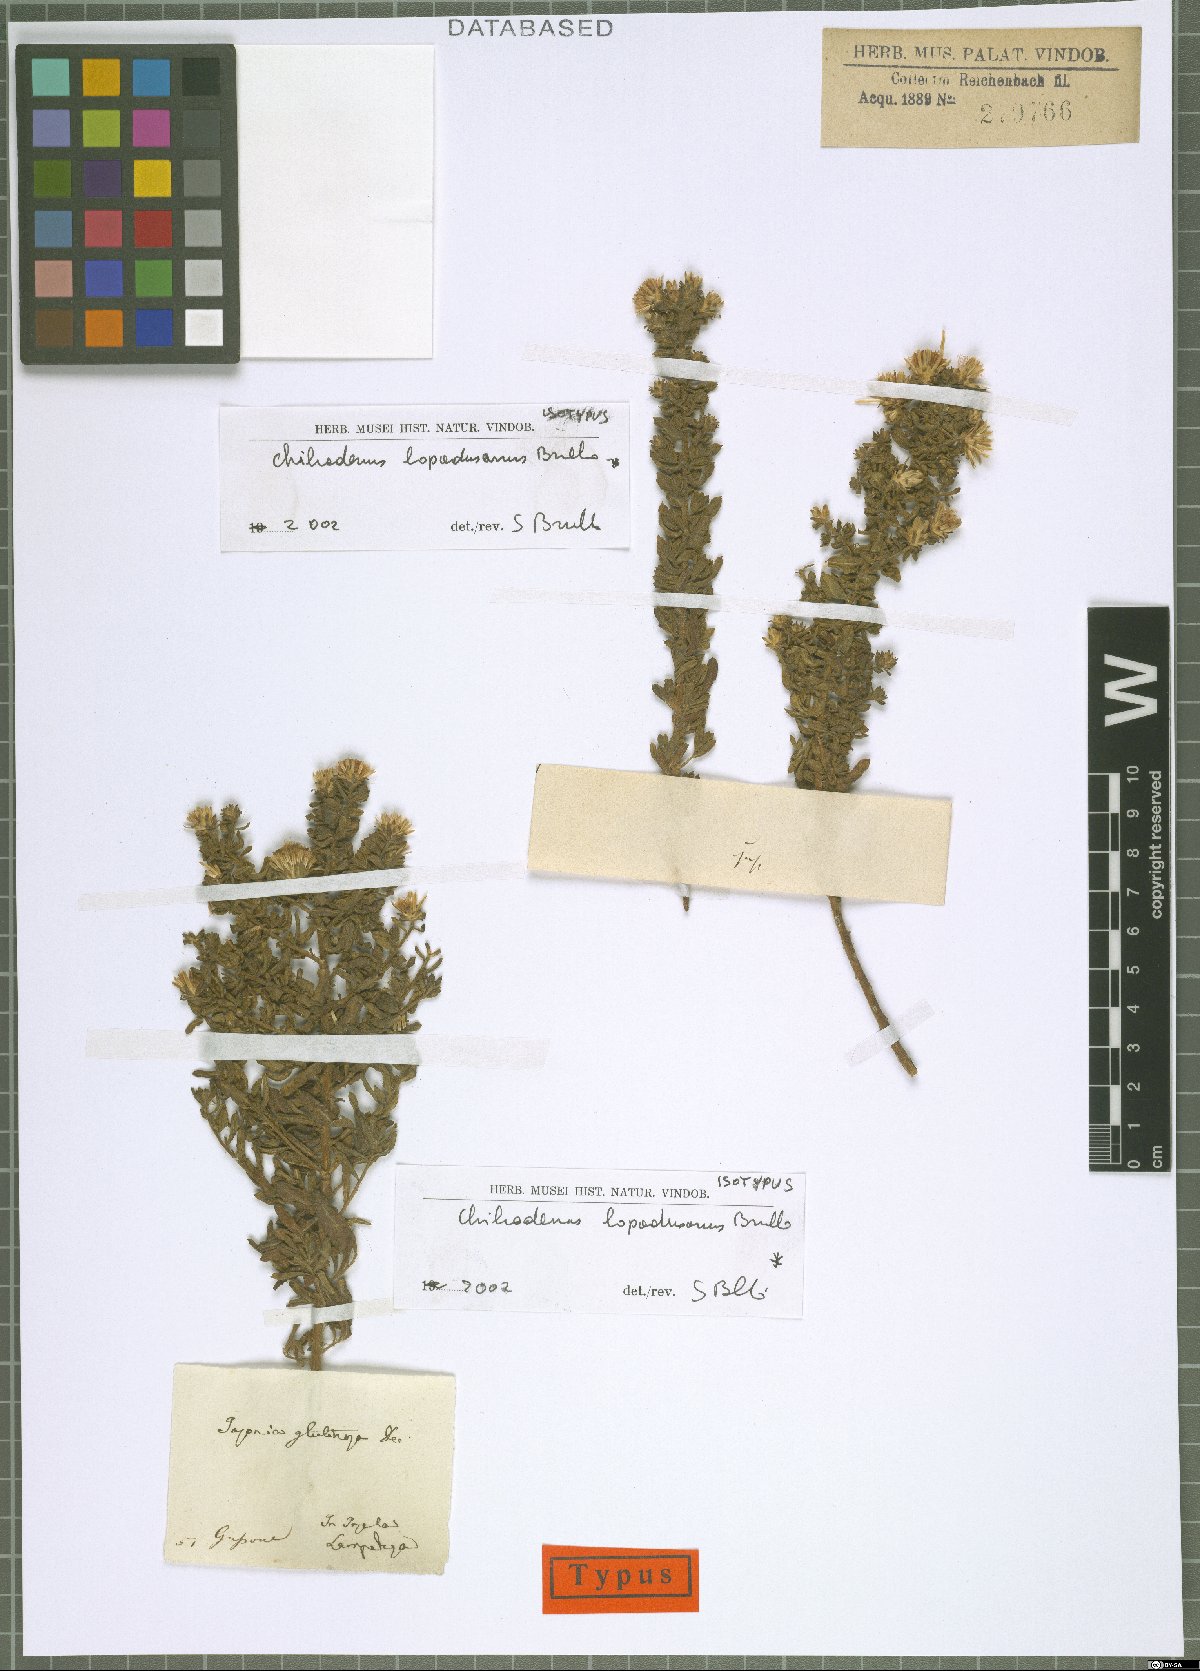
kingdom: Plantae
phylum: Tracheophyta
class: Magnoliopsida
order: Asterales
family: Asteraceae
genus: Chiliadenus
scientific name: Chiliadenus lopadusanus
